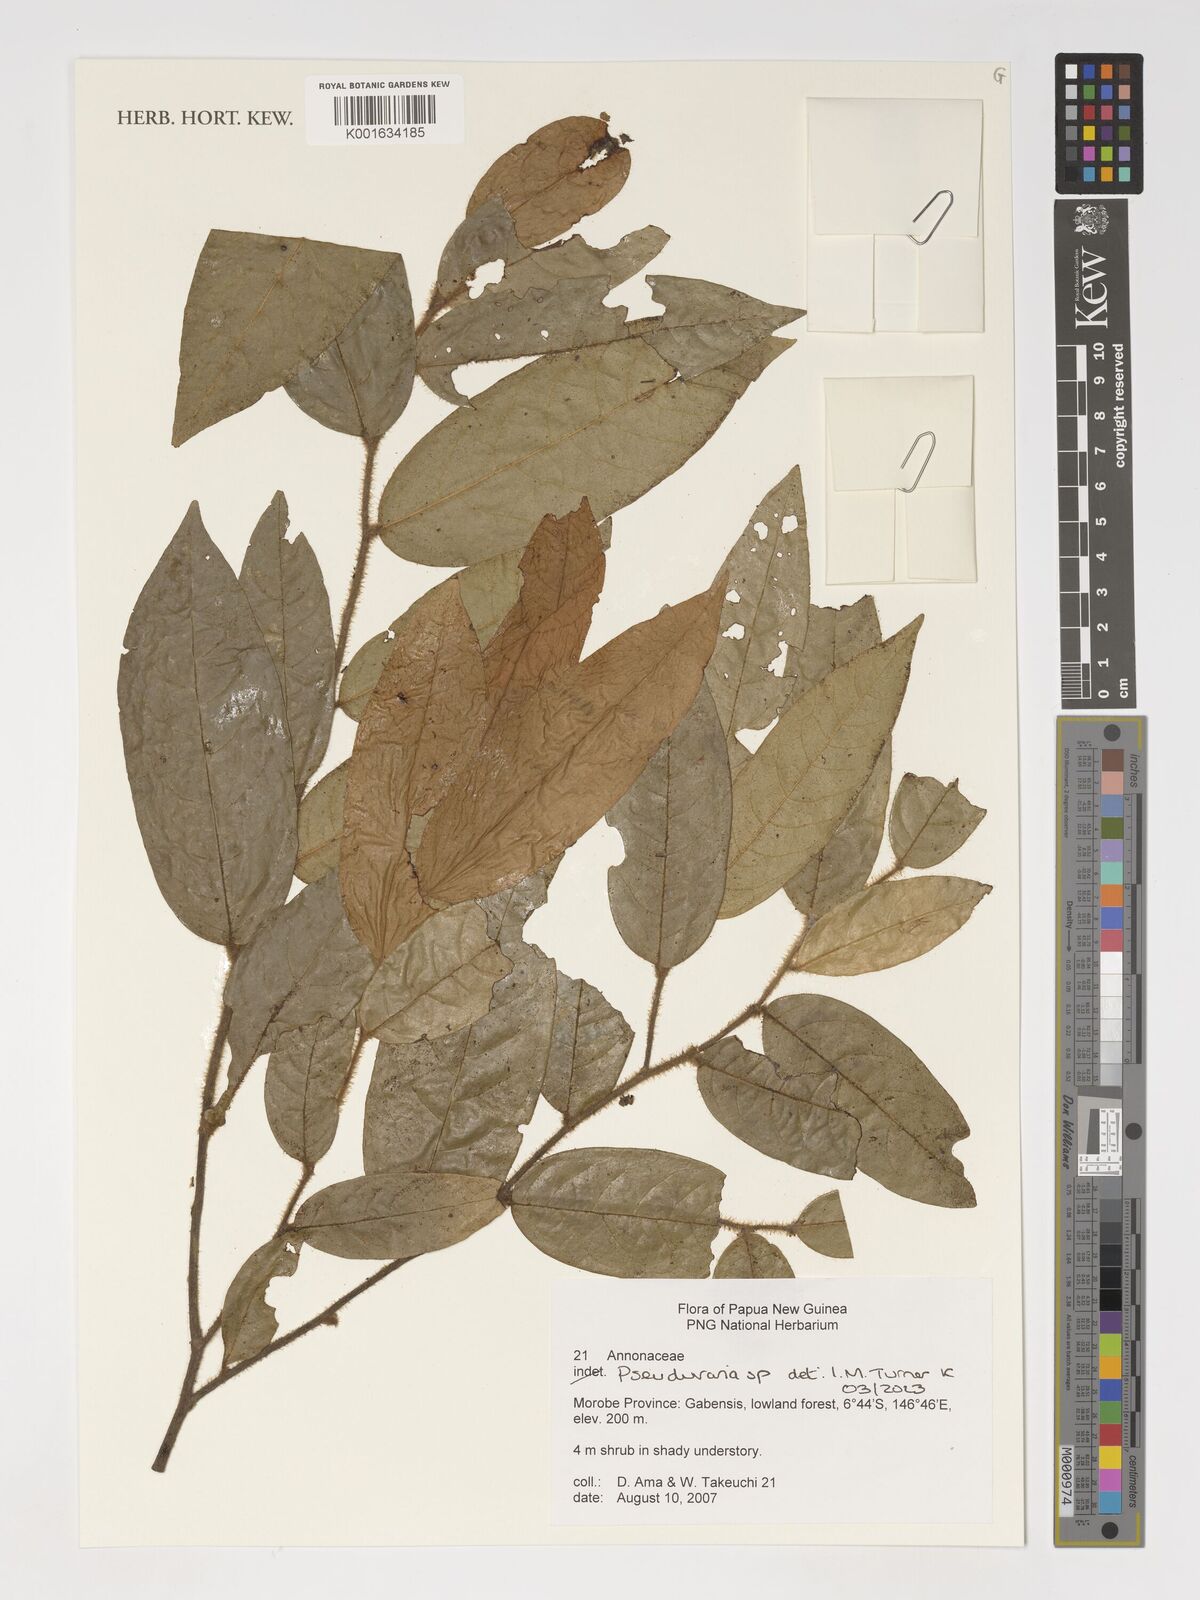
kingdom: Plantae
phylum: Tracheophyta
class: Magnoliopsida
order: Magnoliales
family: Annonaceae
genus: Pseuduvaria
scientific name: Pseuduvaria
